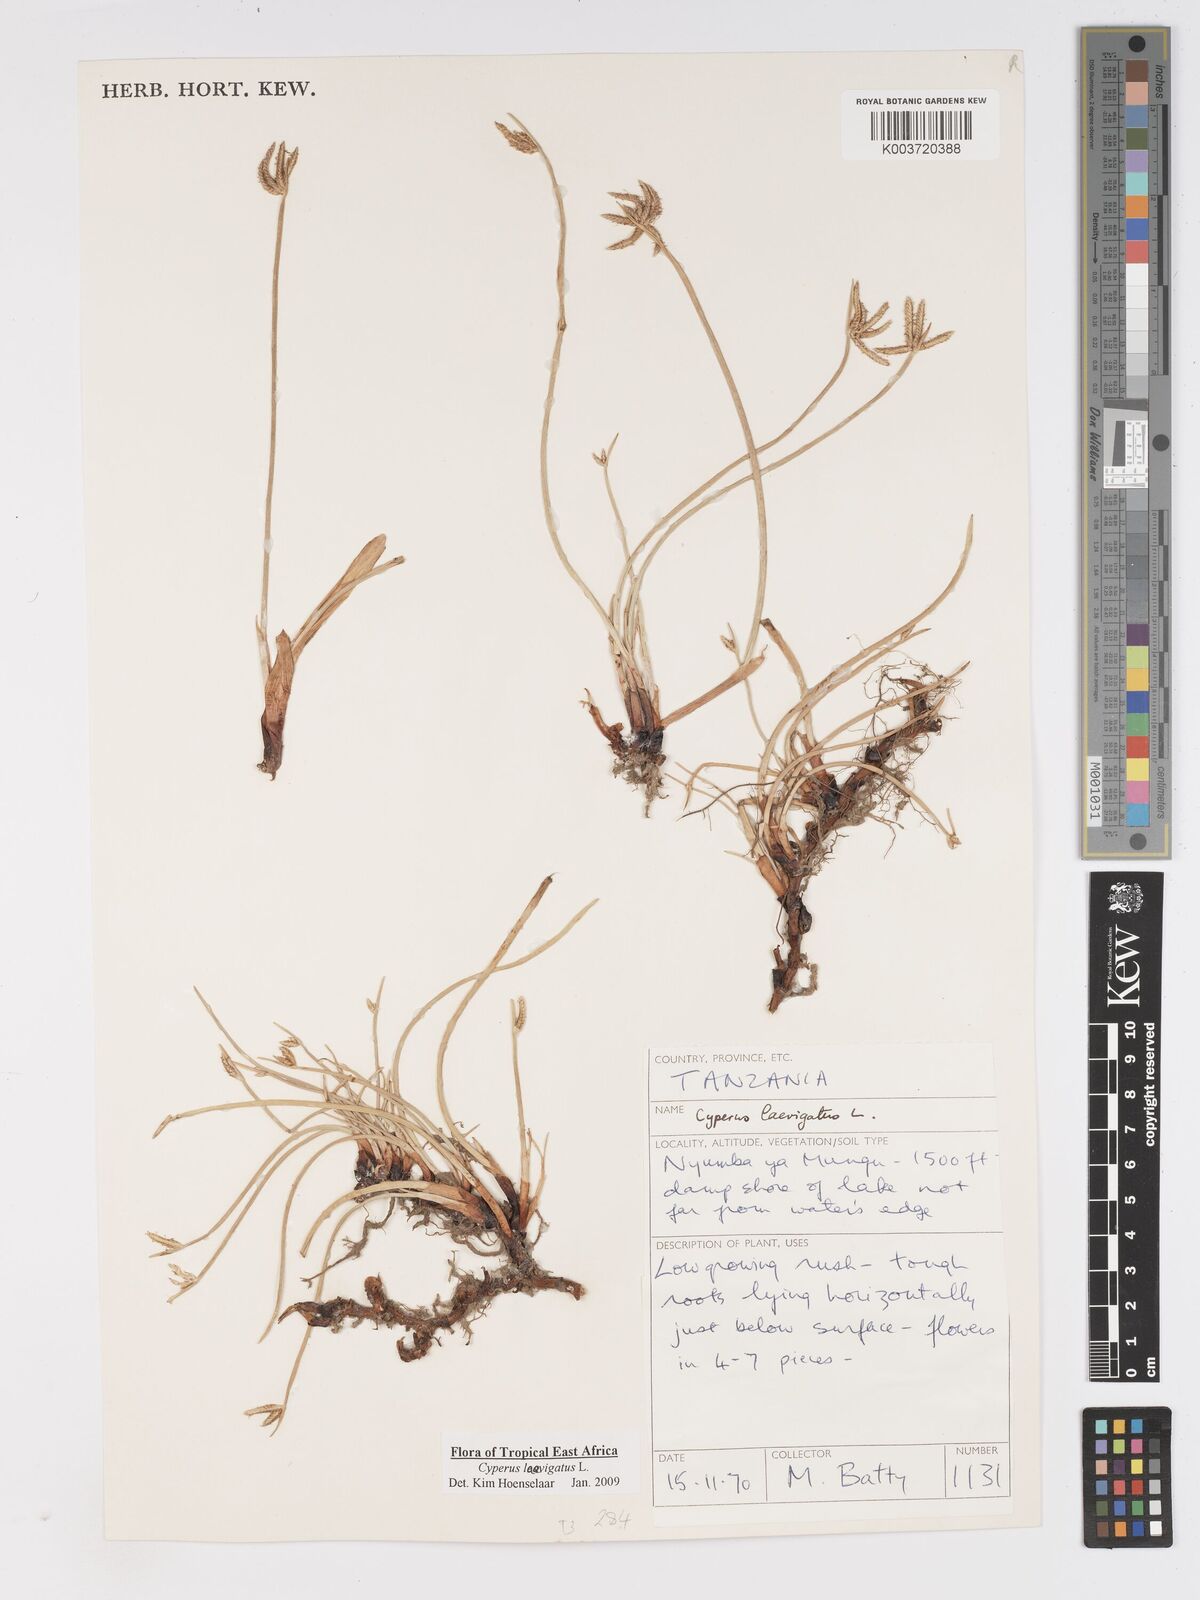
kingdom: Plantae
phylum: Tracheophyta
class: Liliopsida
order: Poales
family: Cyperaceae
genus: Cyperus
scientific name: Cyperus laevigatus
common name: Smooth flat sedge
